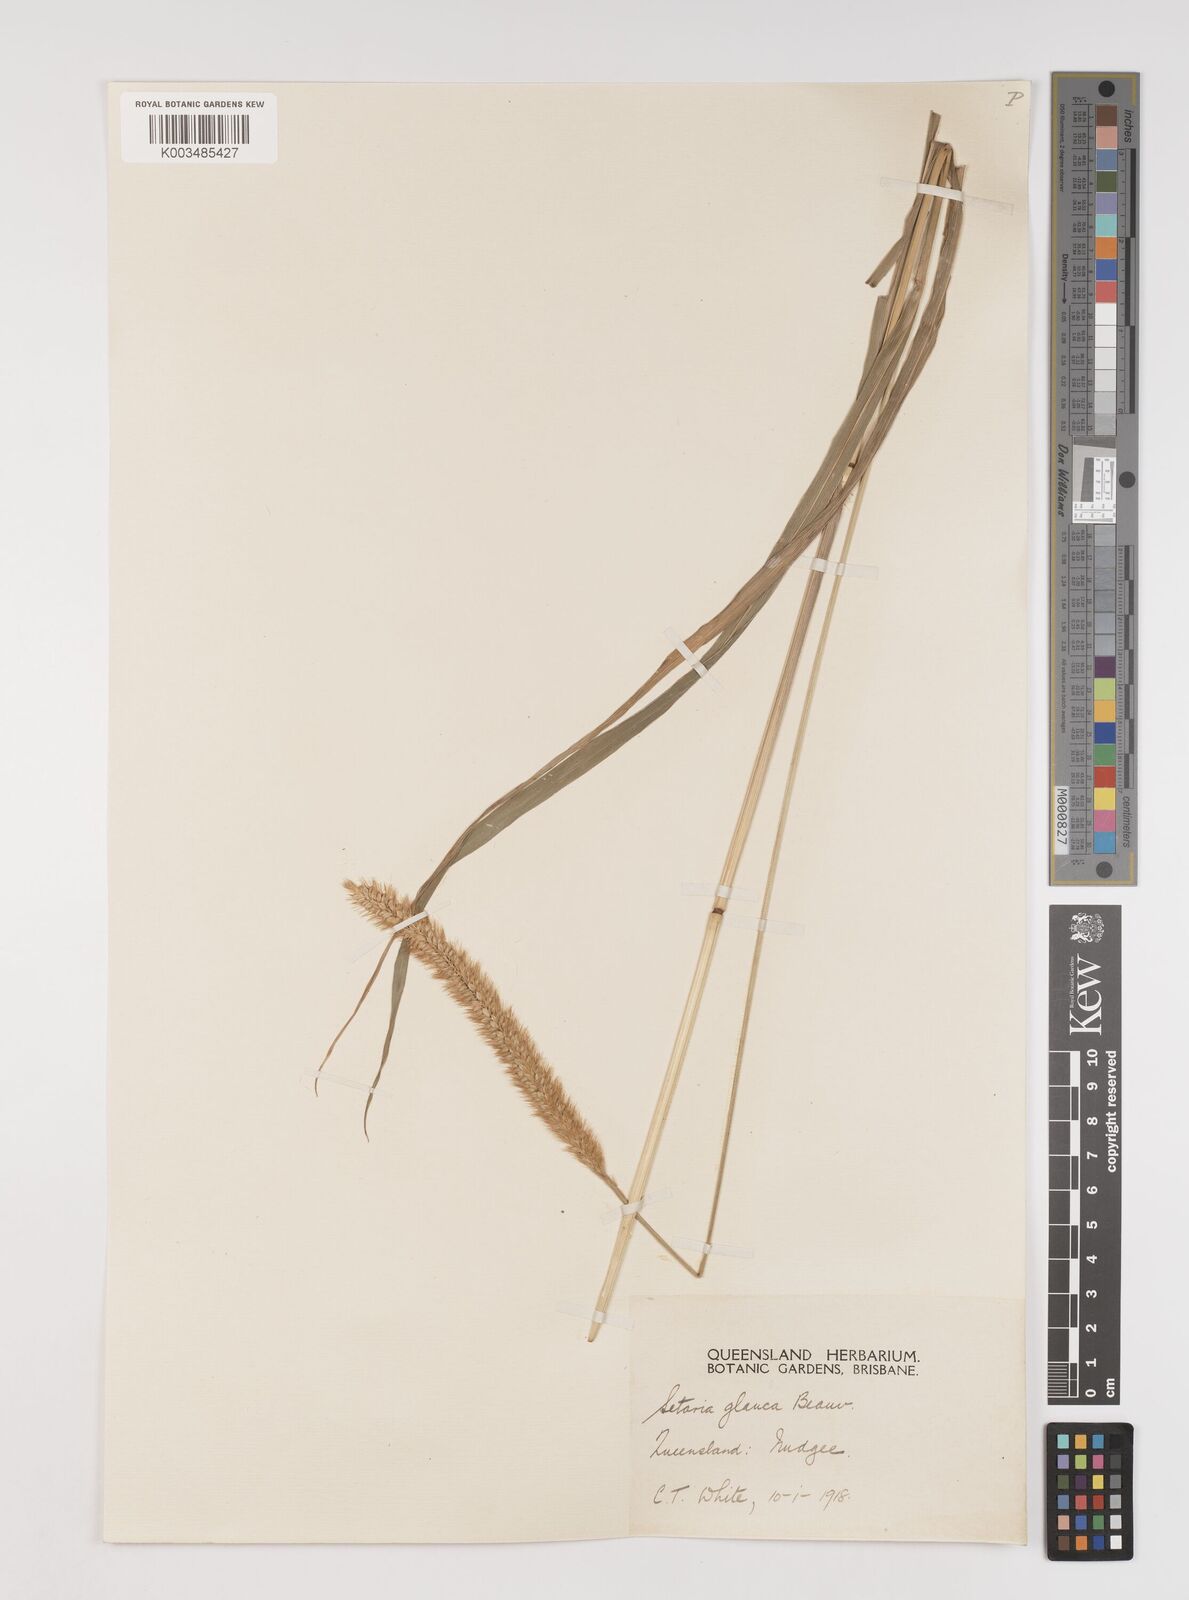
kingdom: Plantae
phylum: Tracheophyta
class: Liliopsida
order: Poales
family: Poaceae
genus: Setaria
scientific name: Setaria pumila
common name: Yellow bristle-grass
